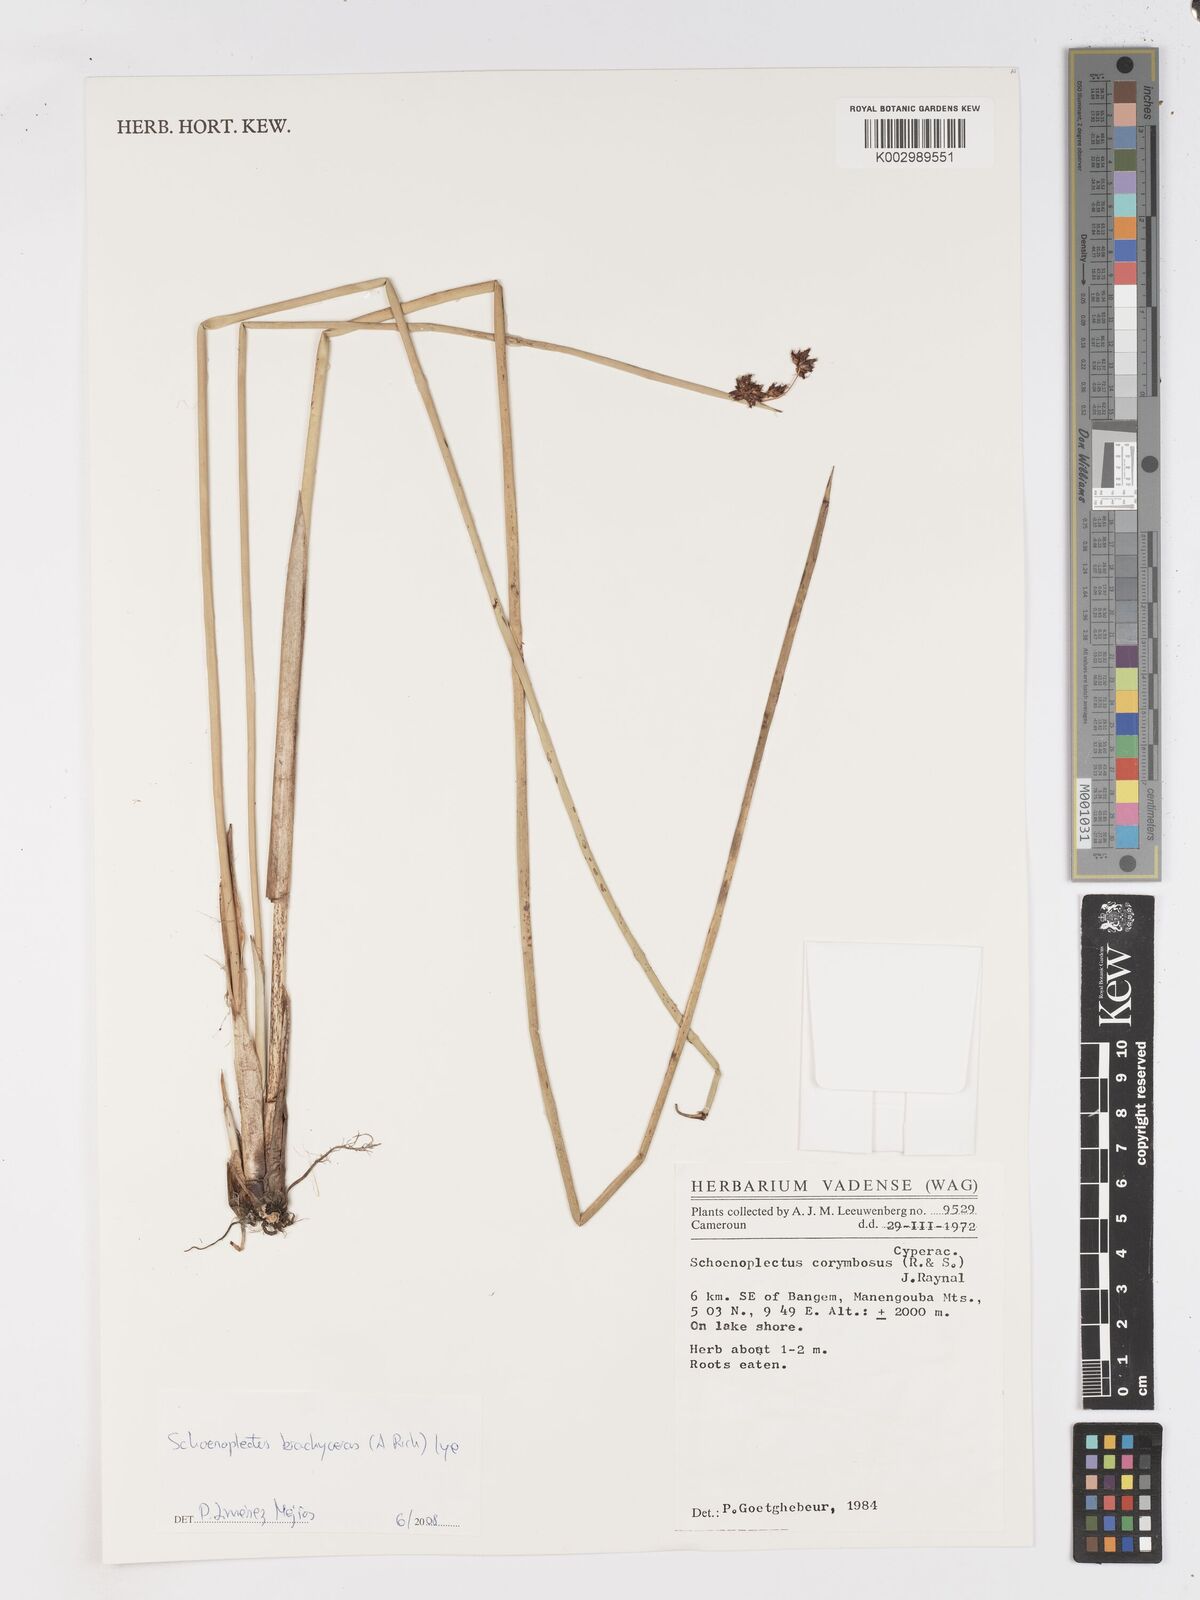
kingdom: Plantae
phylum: Tracheophyta
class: Liliopsida
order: Poales
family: Cyperaceae
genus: Schoenoplectiella
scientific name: Schoenoplectiella corymbosa
